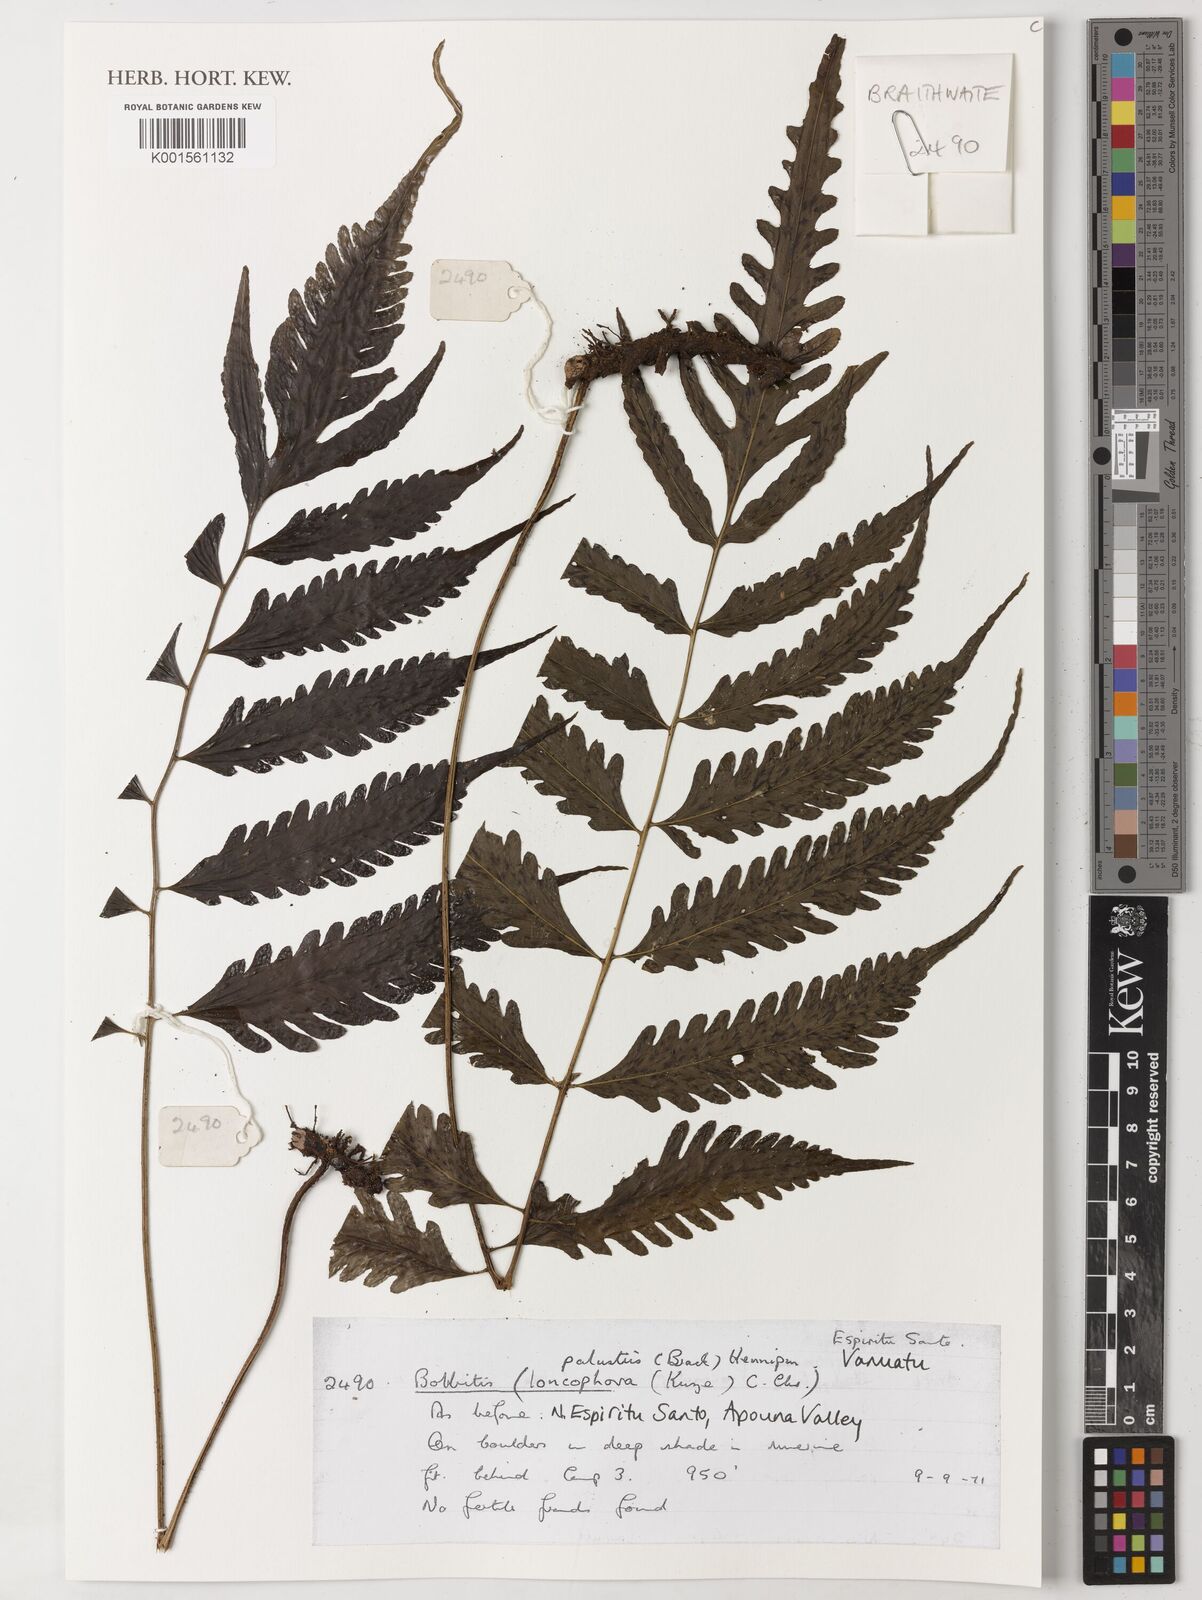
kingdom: Plantae
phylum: Tracheophyta
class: Polypodiopsida
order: Polypodiales
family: Dryopteridaceae
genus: Bolbitis
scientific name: Bolbitis lonchophora
